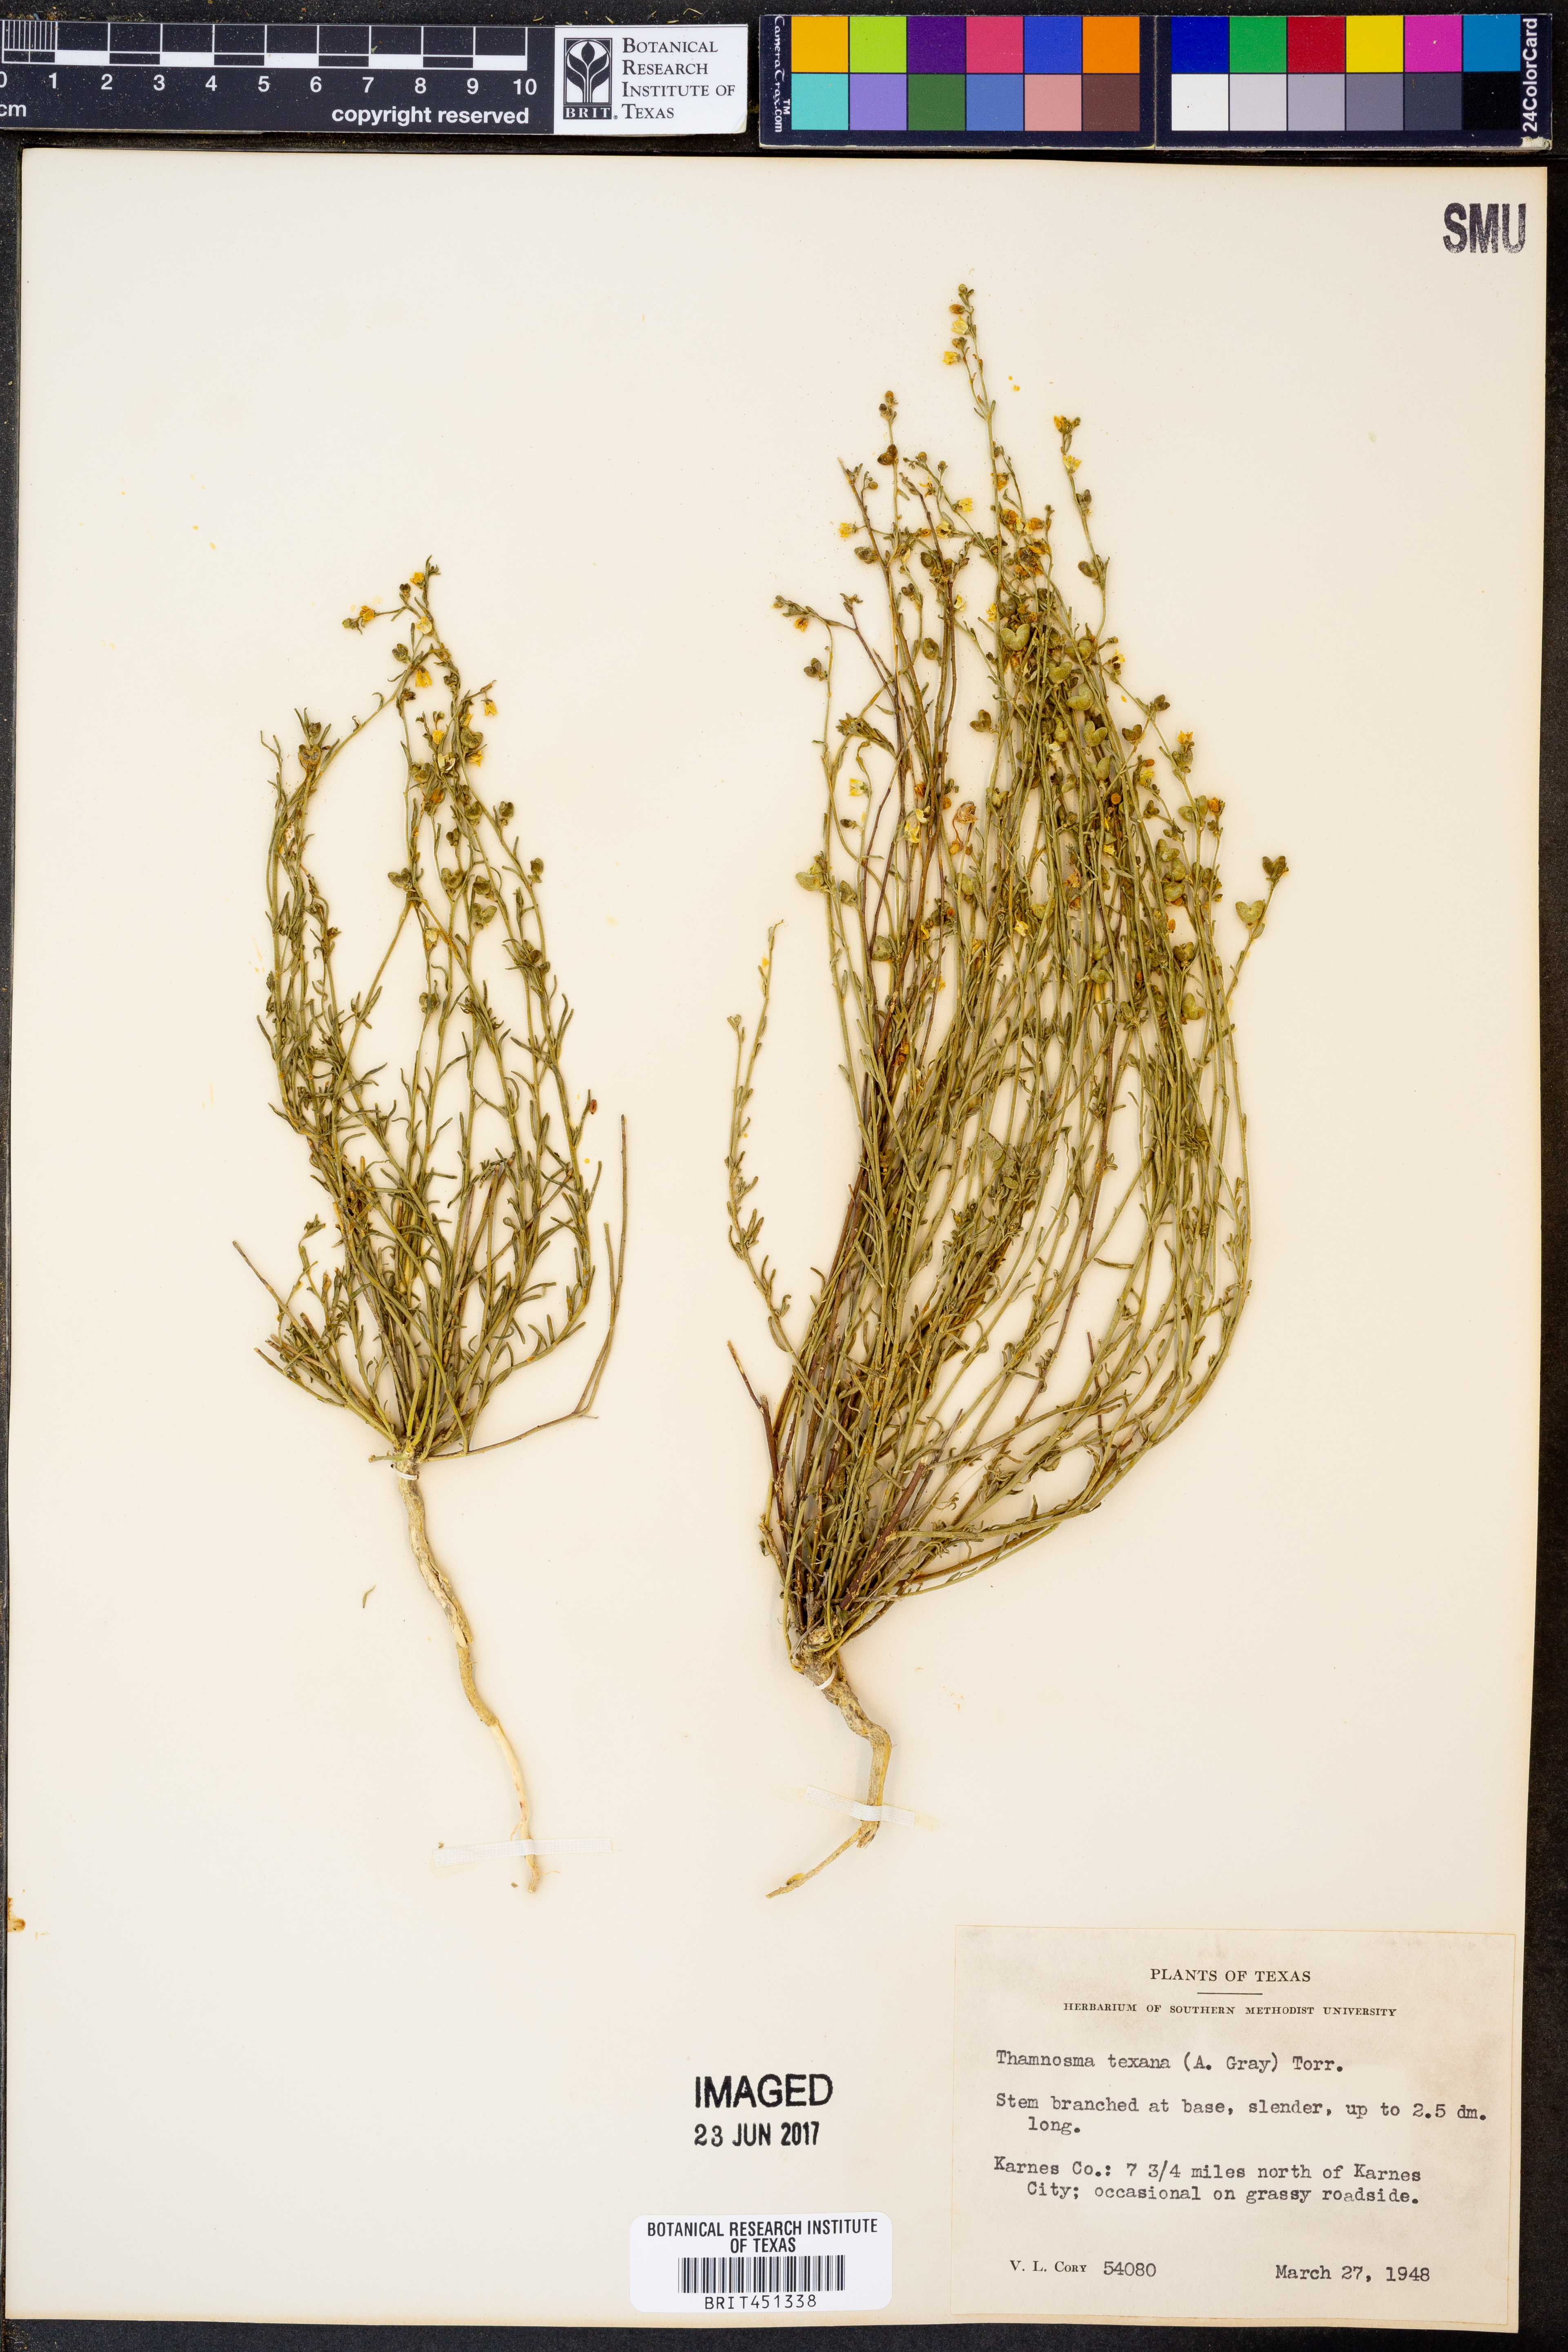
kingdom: Plantae
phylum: Tracheophyta
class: Magnoliopsida
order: Sapindales
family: Rutaceae
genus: Thamnosma
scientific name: Thamnosma texana
